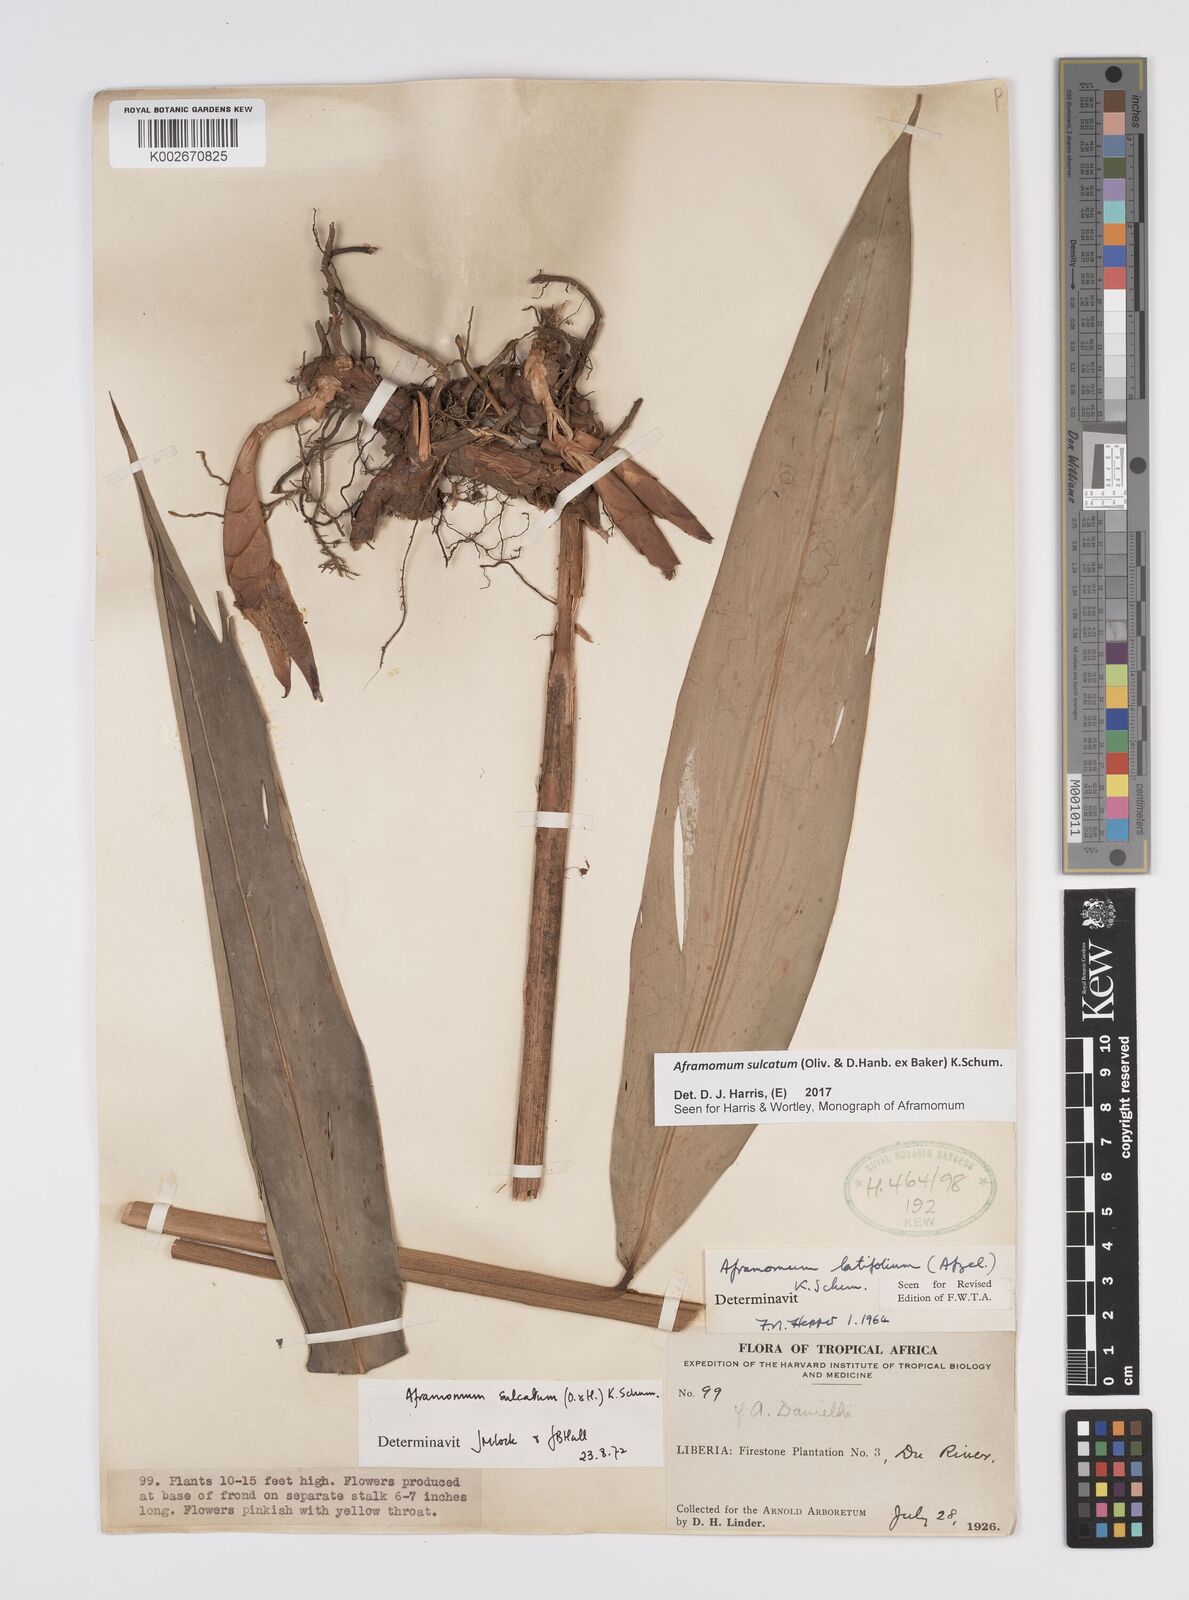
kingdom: Plantae
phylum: Tracheophyta
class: Liliopsida
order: Zingiberales
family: Zingiberaceae
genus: Aframomum
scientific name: Aframomum sulcatum
